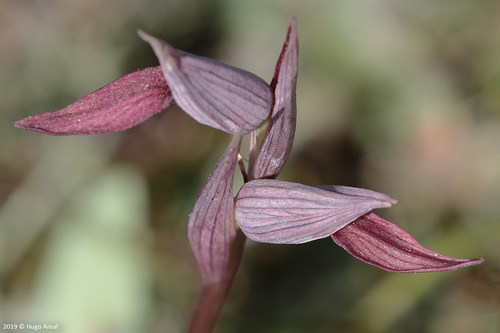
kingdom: Plantae
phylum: Tracheophyta
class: Liliopsida
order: Asparagales
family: Orchidaceae
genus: Serapias
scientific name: Serapias strictiflora
